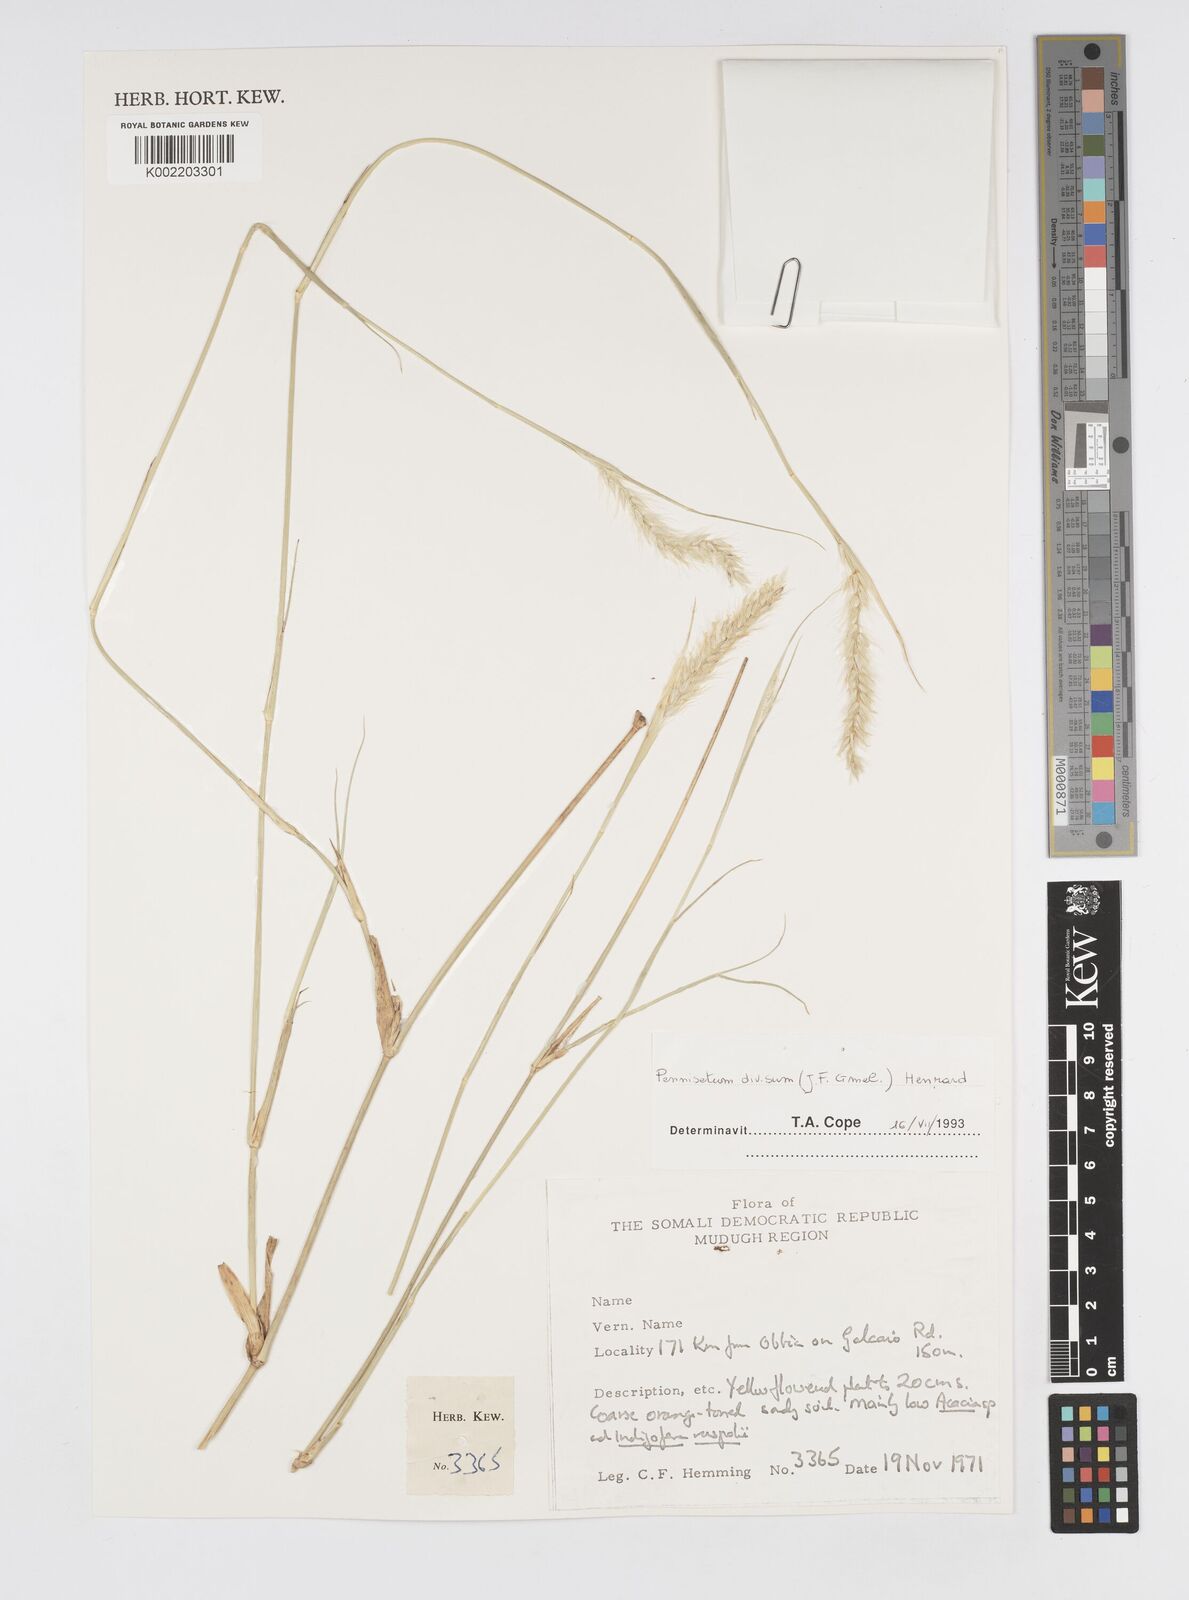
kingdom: Plantae
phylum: Tracheophyta
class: Liliopsida
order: Poales
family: Poaceae
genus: Cenchrus
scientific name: Cenchrus divisus
